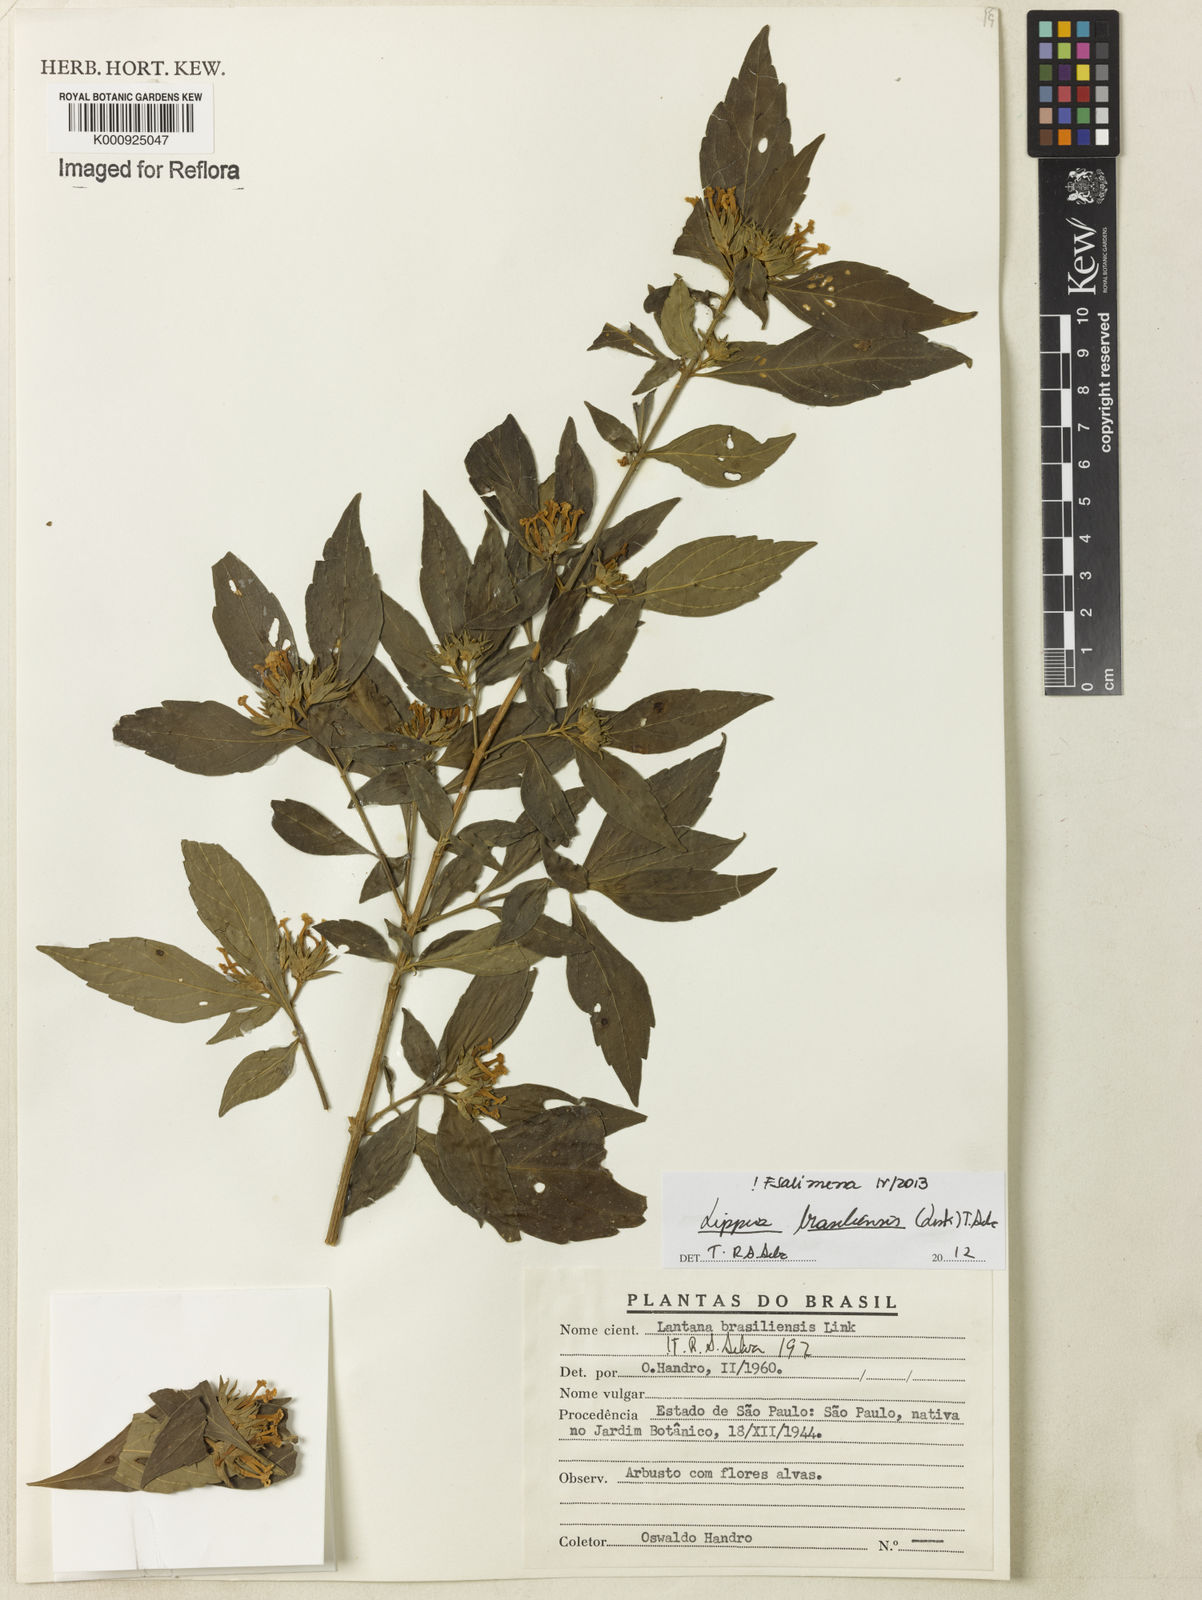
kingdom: Plantae
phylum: Tracheophyta
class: Magnoliopsida
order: Lamiales
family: Verbenaceae
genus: Lippia
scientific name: Lippia brasiliensis
